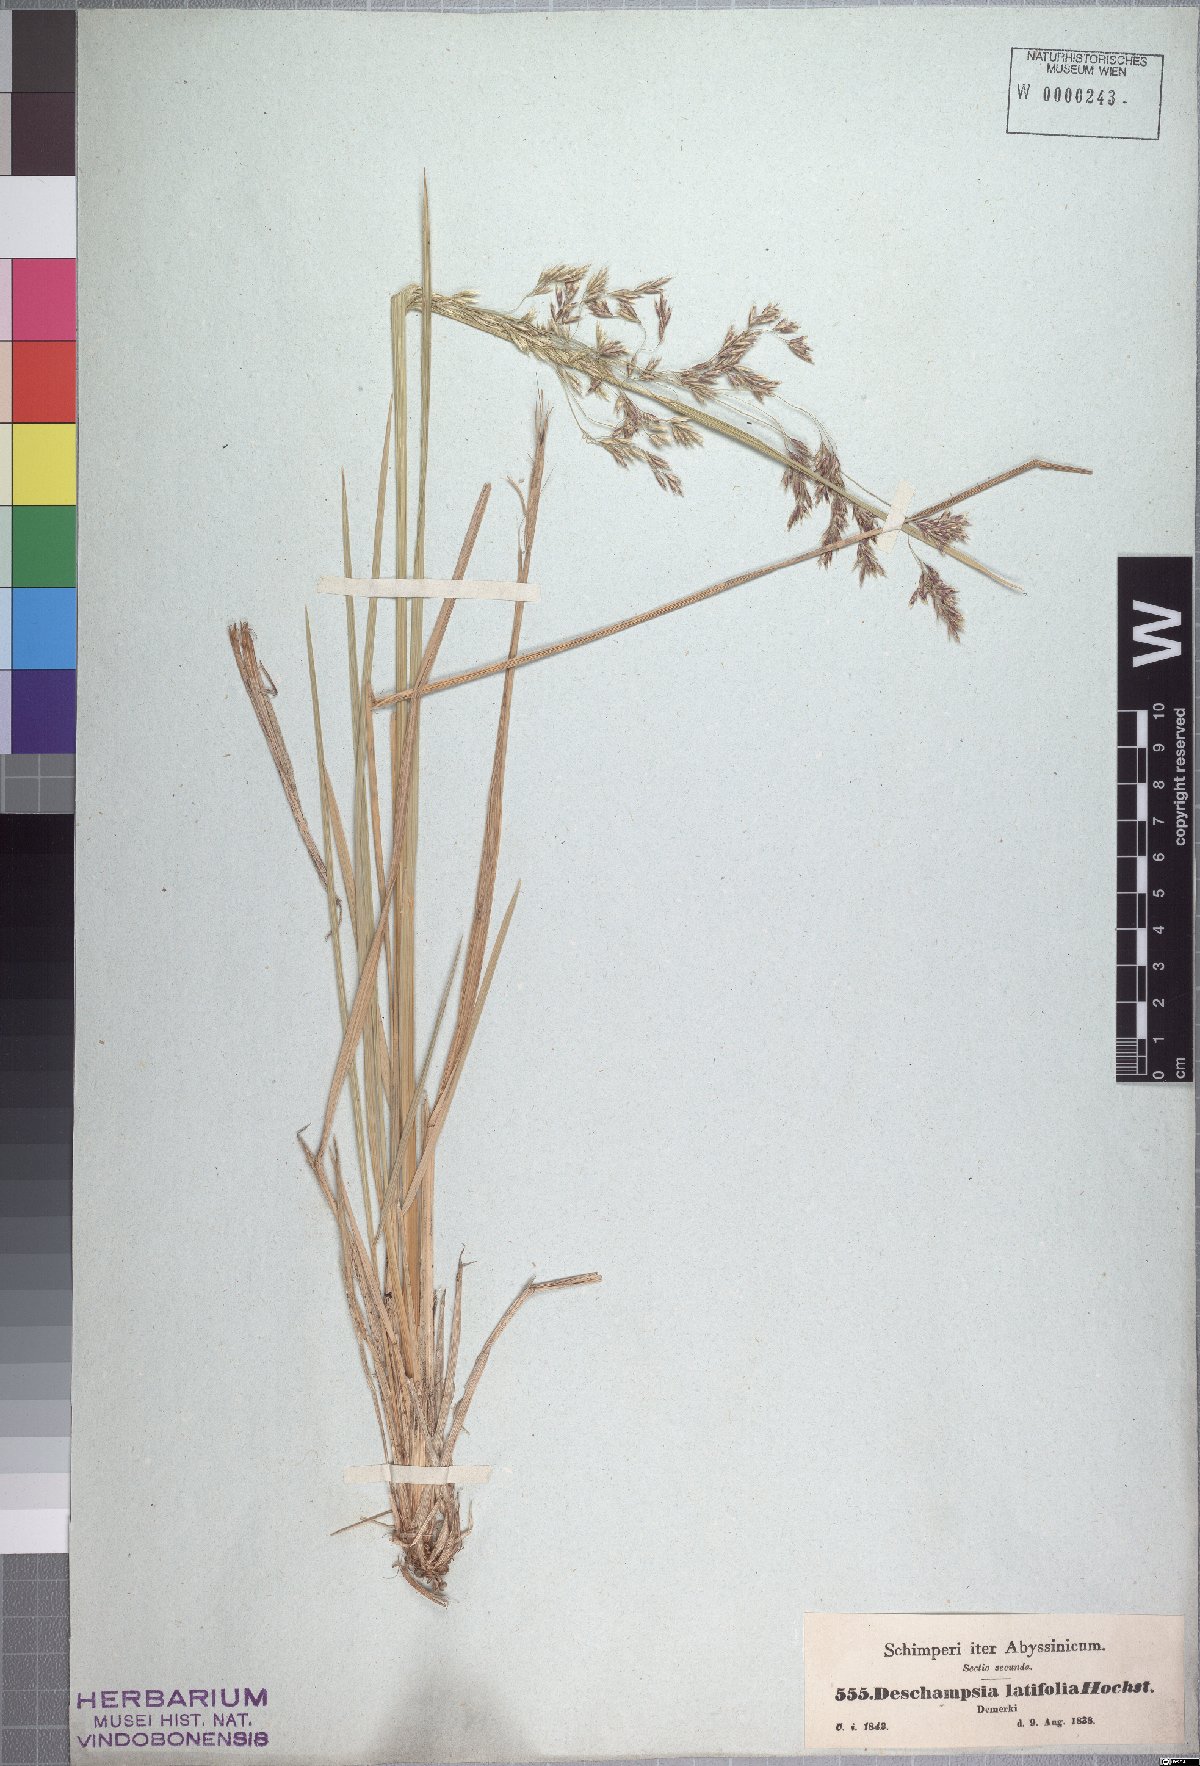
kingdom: Plantae
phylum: Tracheophyta
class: Liliopsida
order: Poales
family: Poaceae
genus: Deschampsia
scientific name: Deschampsia cespitosa
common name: Tufted hair-grass
